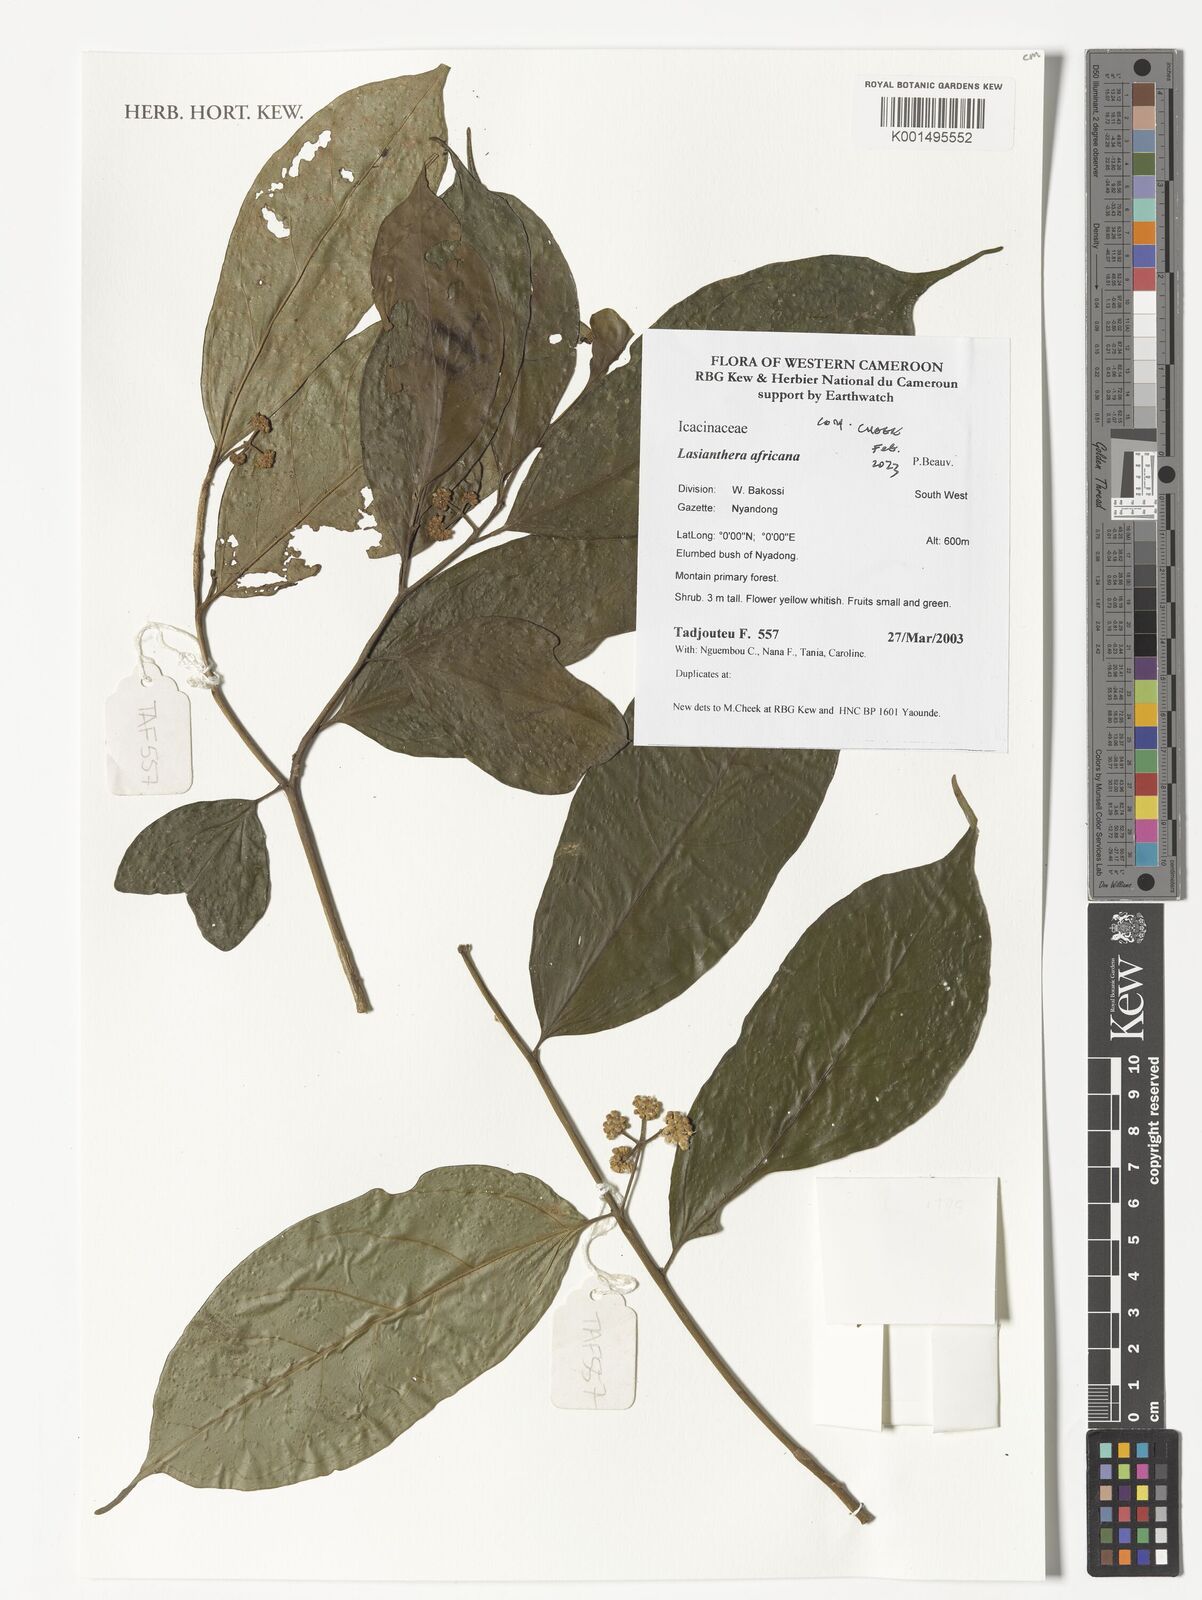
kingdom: Plantae
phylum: Tracheophyta
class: Magnoliopsida
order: Cardiopteridales
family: Stemonuraceae
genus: Lasianthera
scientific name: Lasianthera africana
